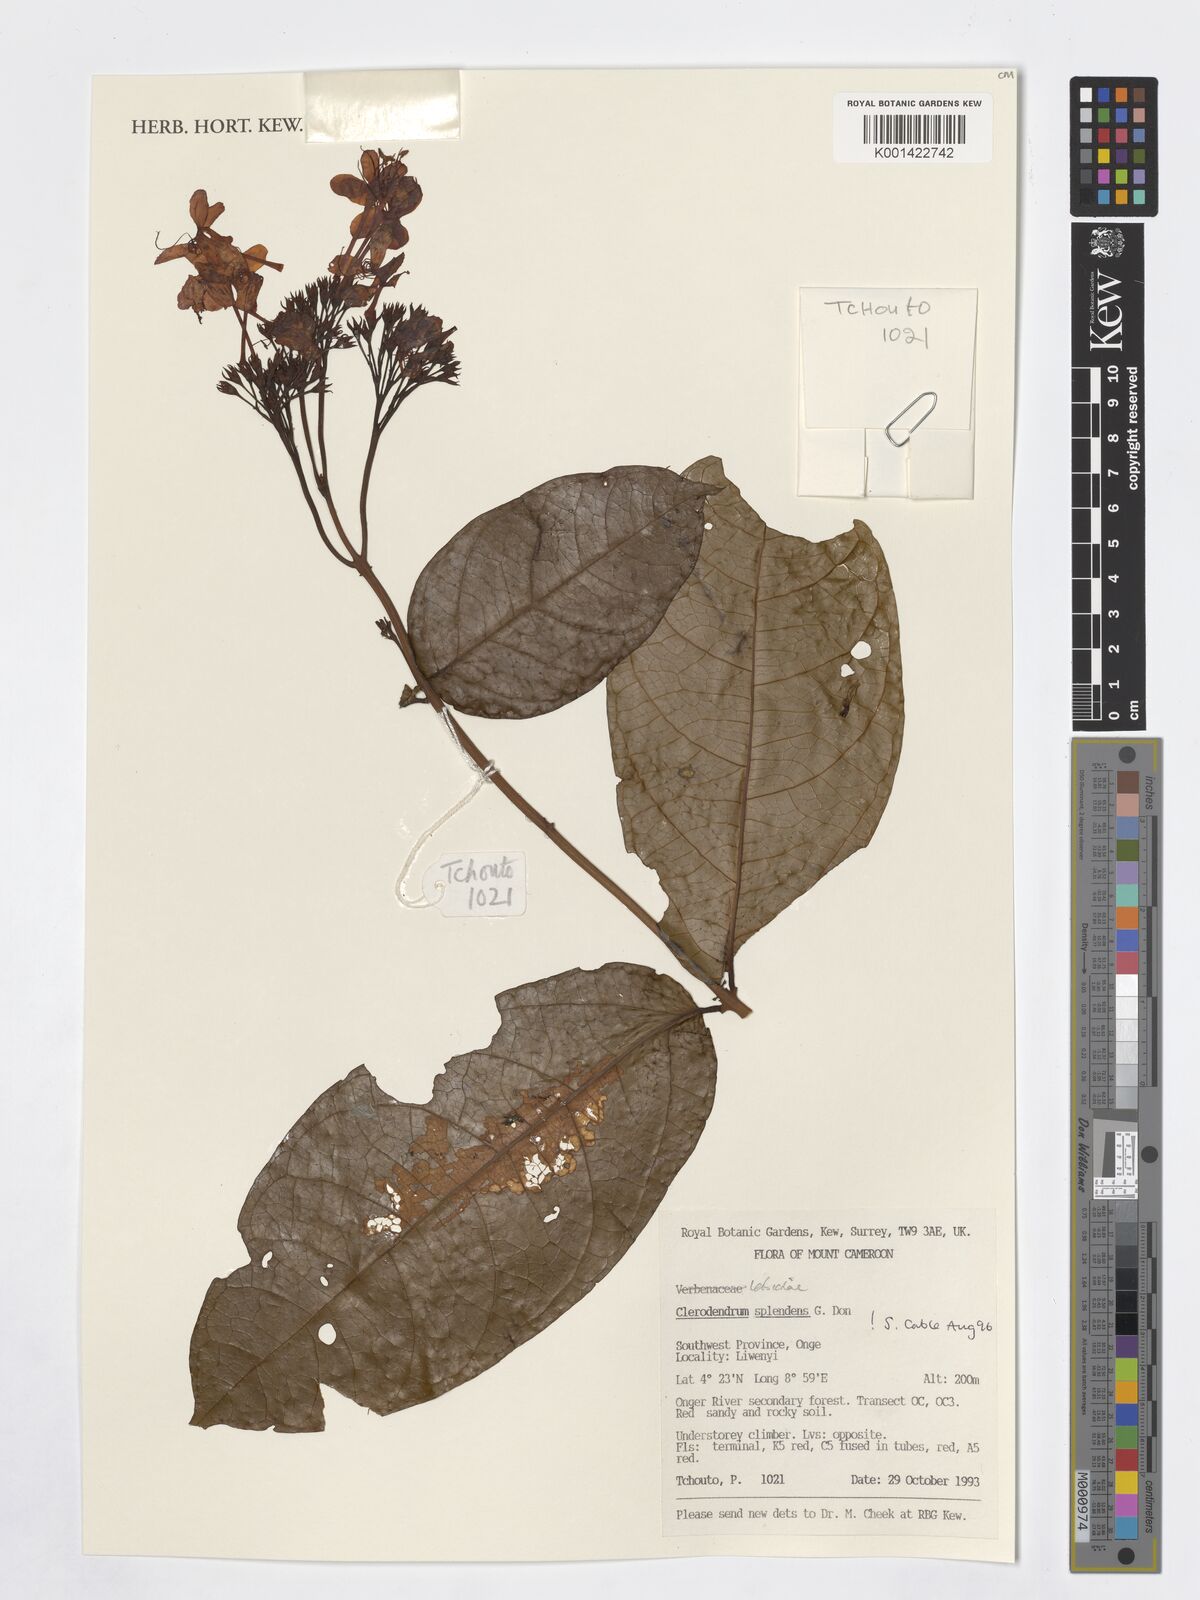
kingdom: Plantae
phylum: Tracheophyta
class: Magnoliopsida
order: Lamiales
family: Lamiaceae
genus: Clerodendrum
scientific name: Clerodendrum splendens
